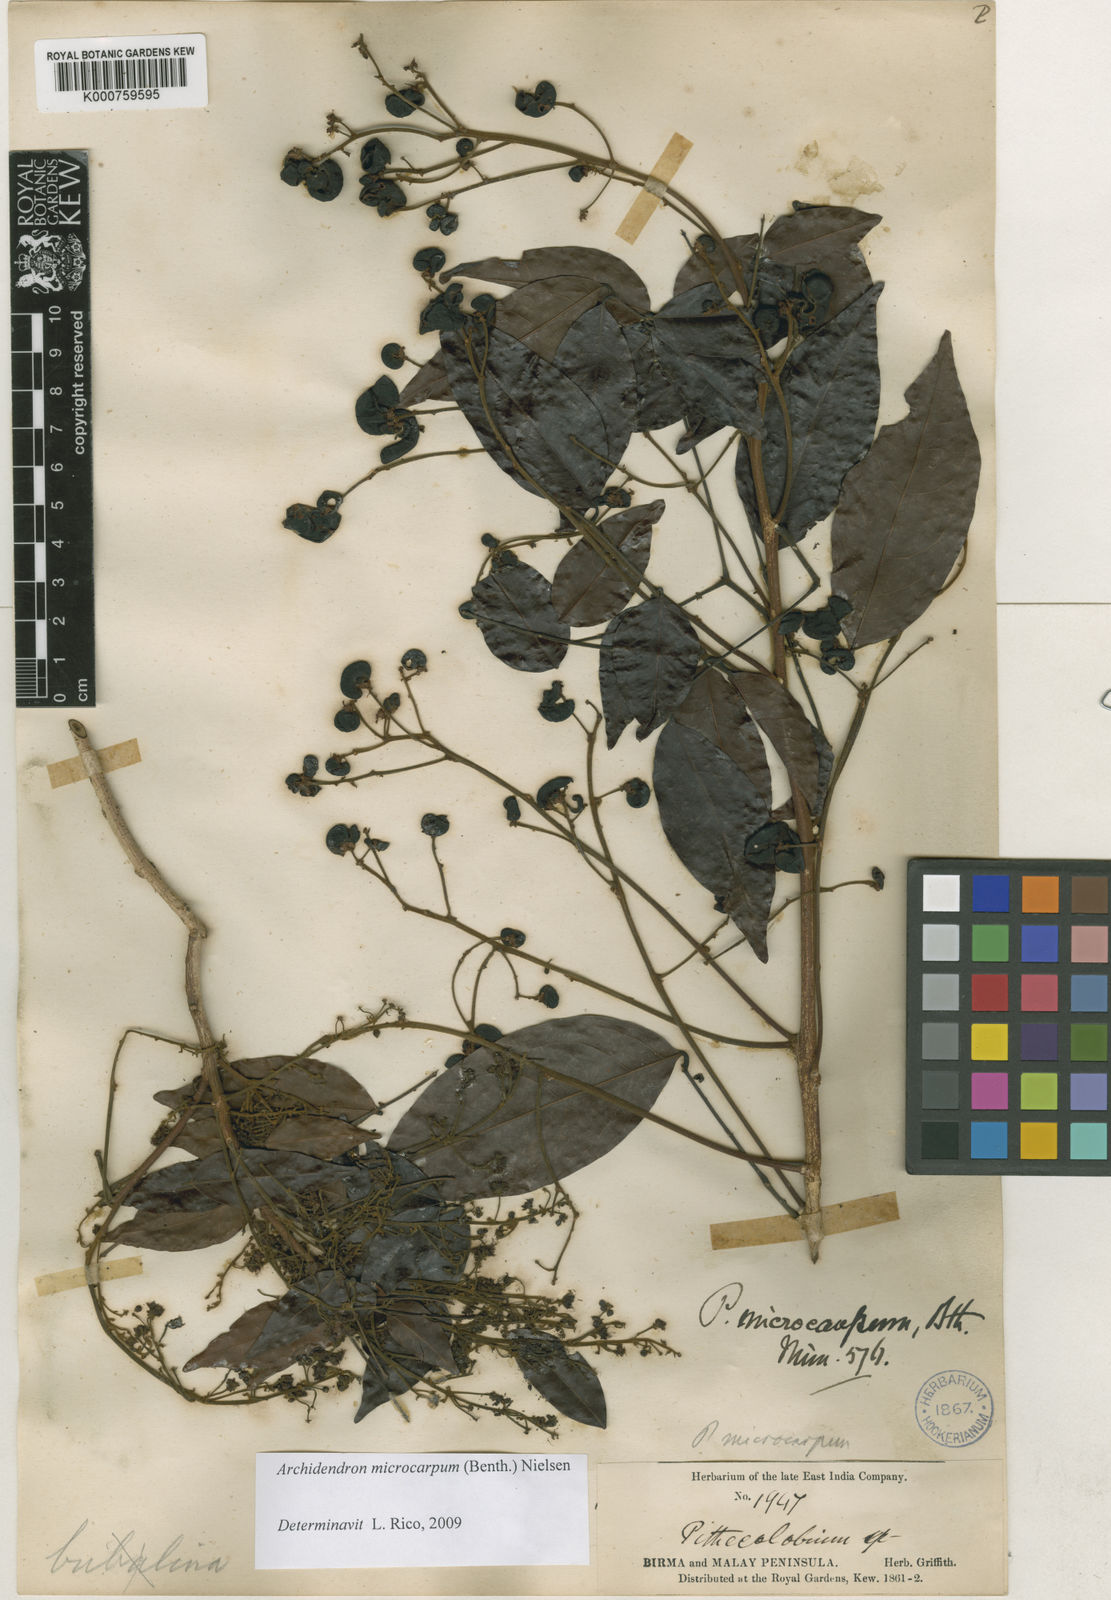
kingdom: Plantae
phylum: Tracheophyta
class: Magnoliopsida
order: Fabales
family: Fabaceae
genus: Archidendron
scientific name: Archidendron microcarpum
